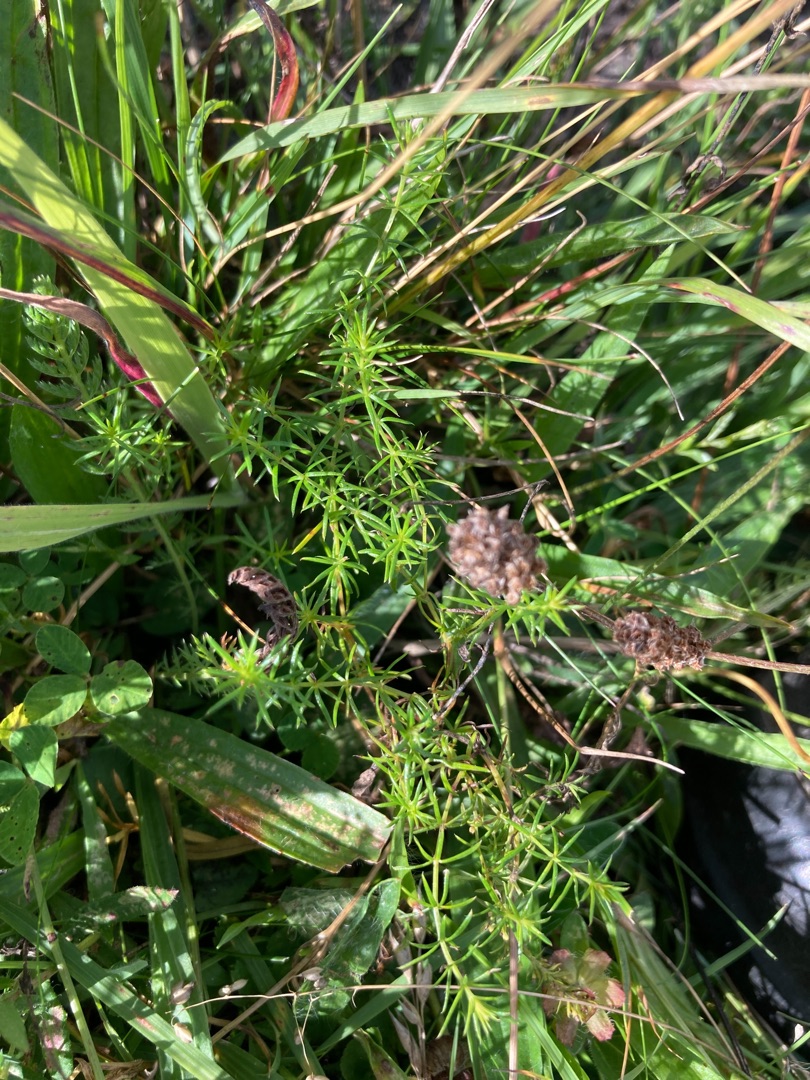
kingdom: Plantae
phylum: Tracheophyta
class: Magnoliopsida
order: Gentianales
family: Rubiaceae
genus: Galium
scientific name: Galium verum
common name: Gul snerre
